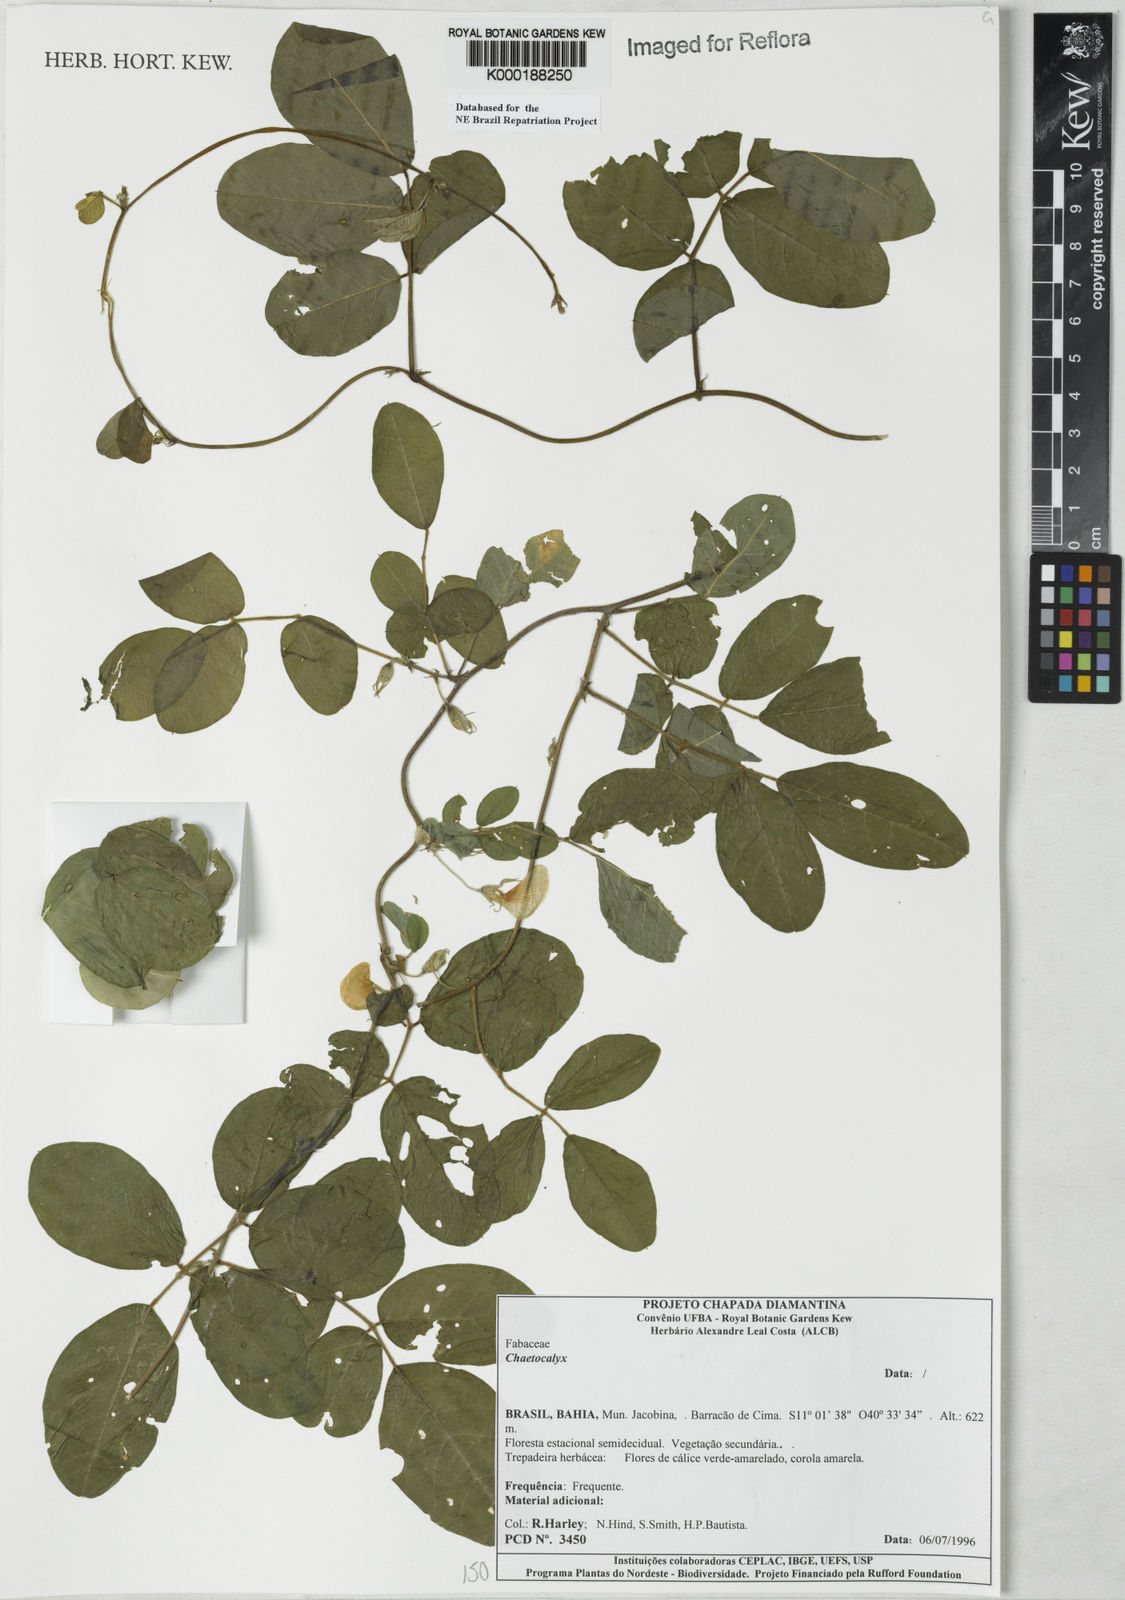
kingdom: Plantae
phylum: Tracheophyta
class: Magnoliopsida
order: Fabales
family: Fabaceae
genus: Nissolia
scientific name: Nissolia
